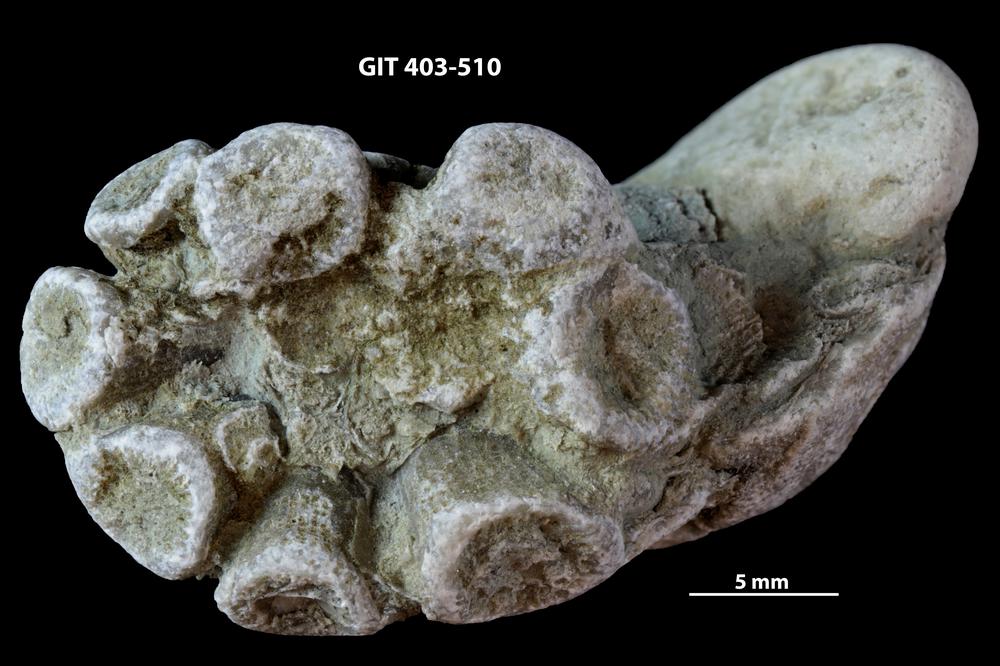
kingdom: Animalia
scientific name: Animalia
